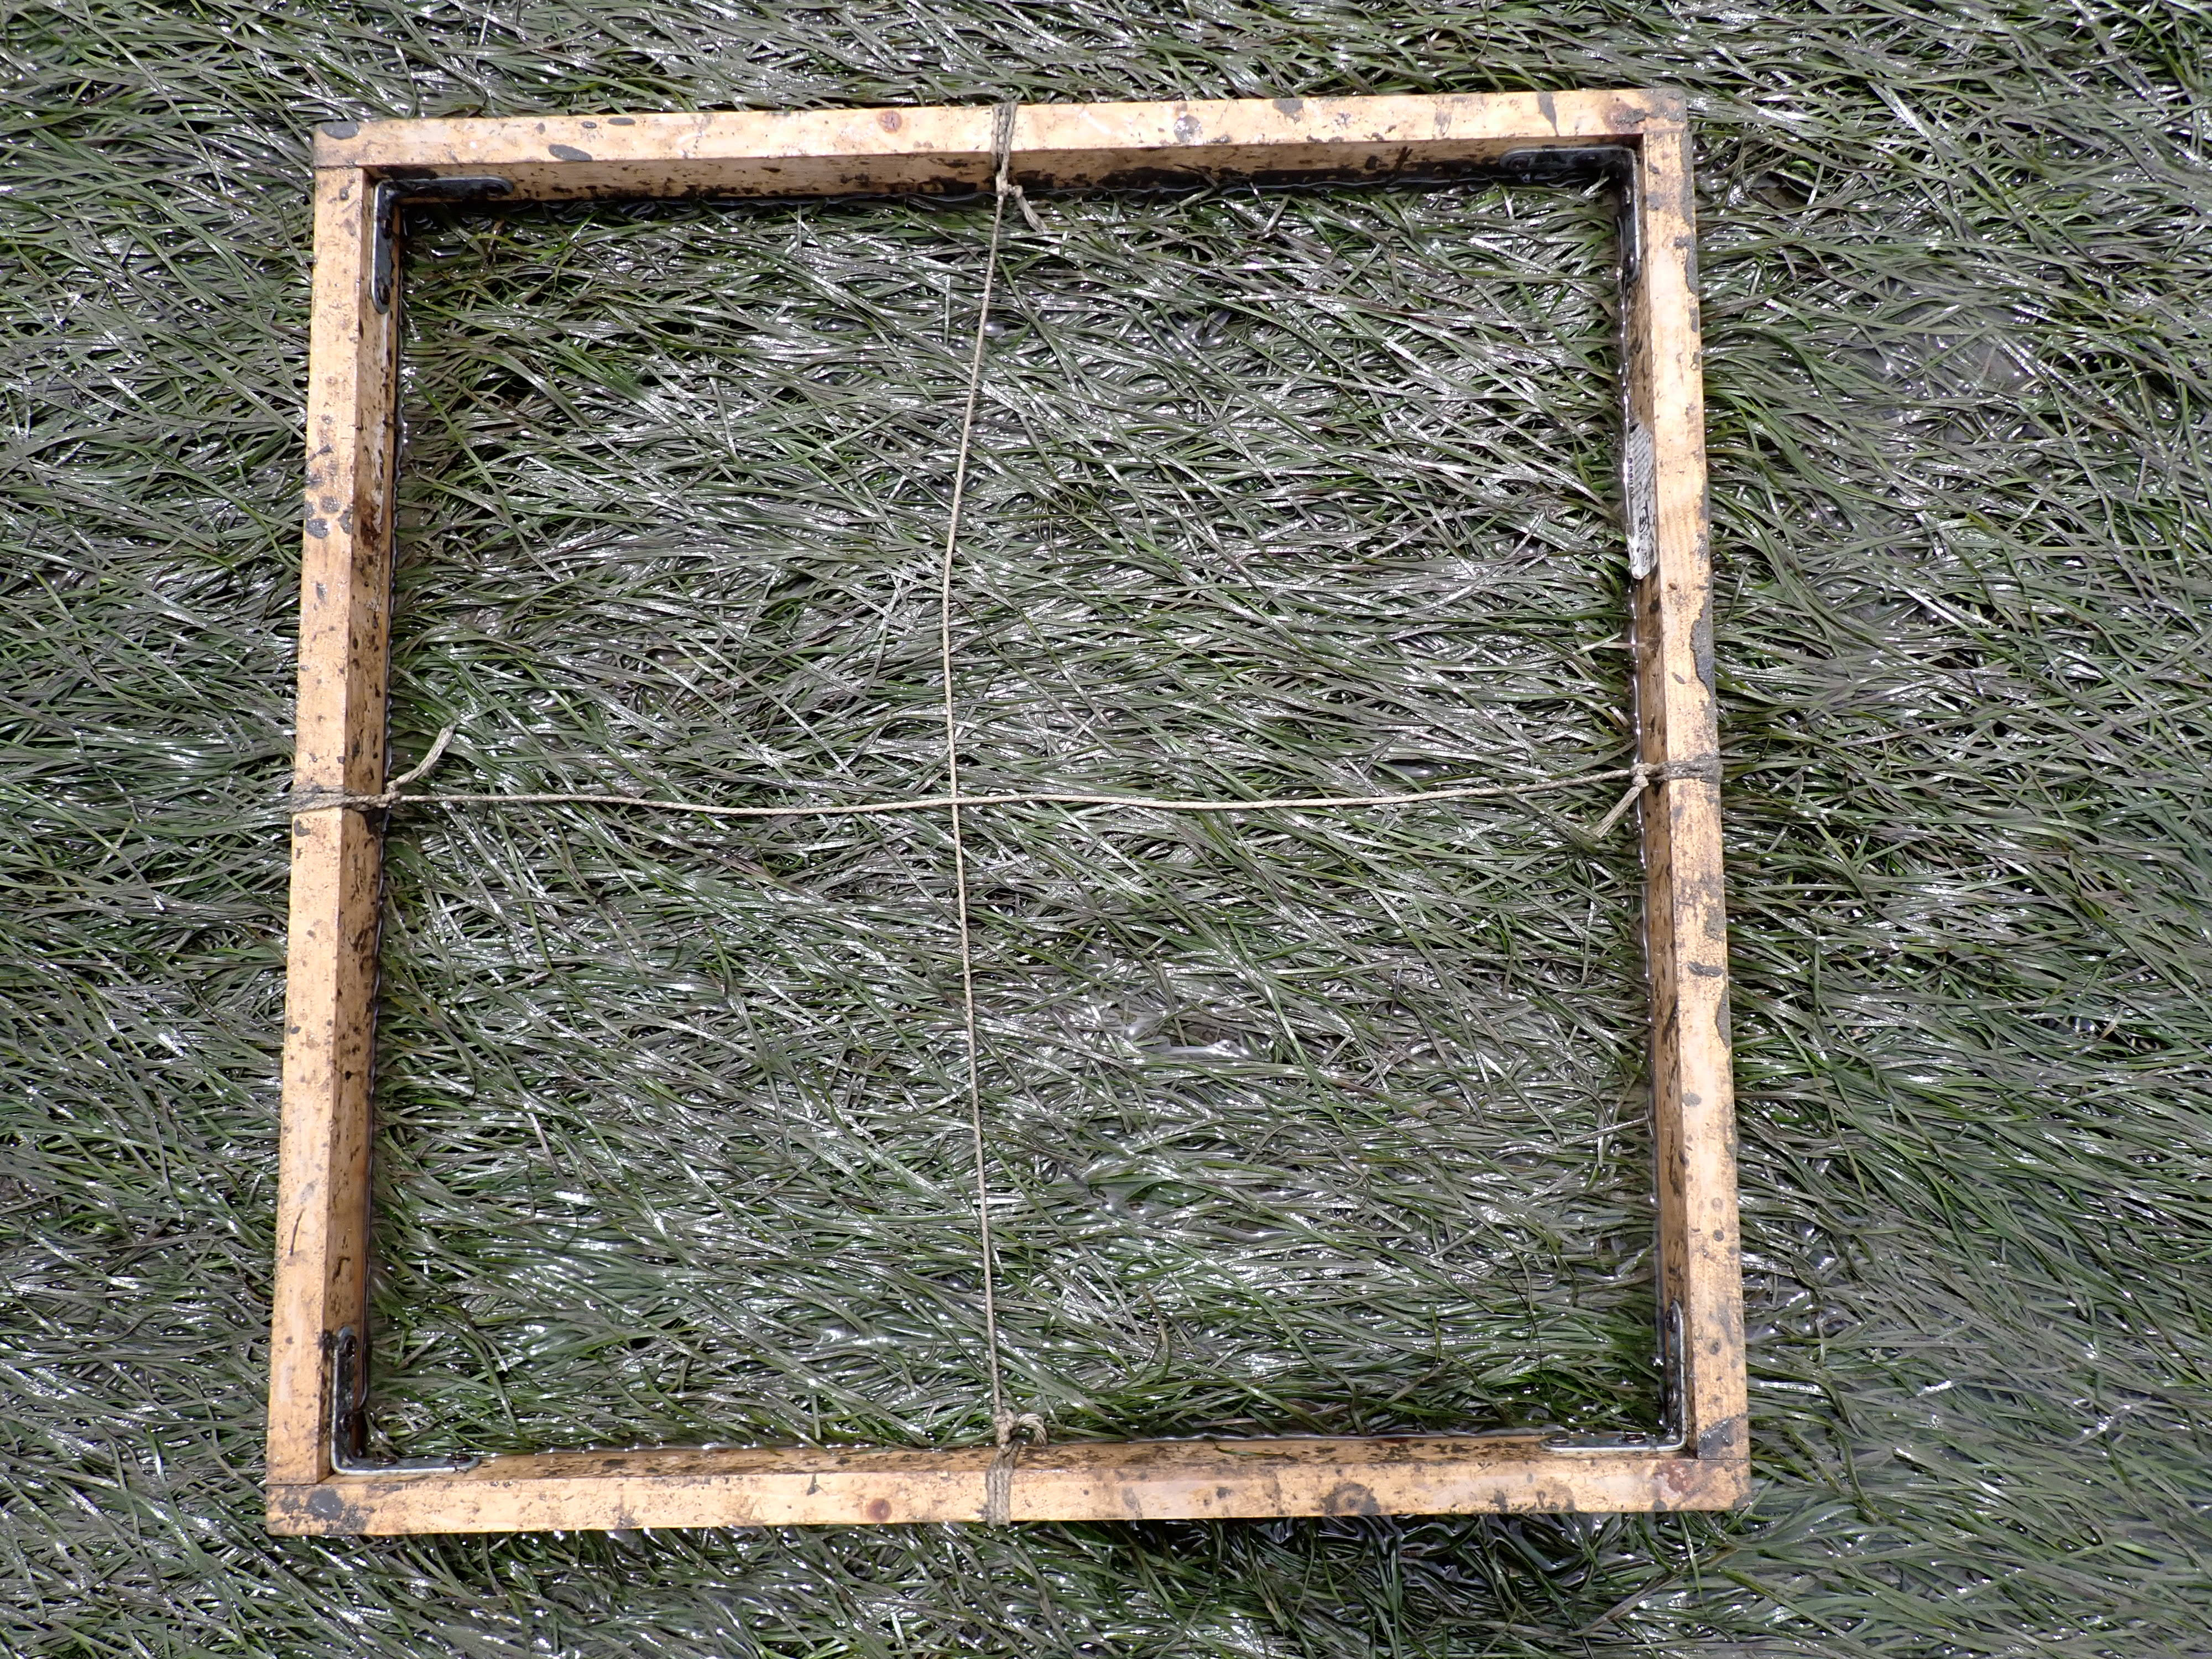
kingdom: Plantae
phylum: Tracheophyta
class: Liliopsida
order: Alismatales
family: Zosteraceae
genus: Zostera
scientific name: Zostera noltii
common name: Dwarf eelgrass
